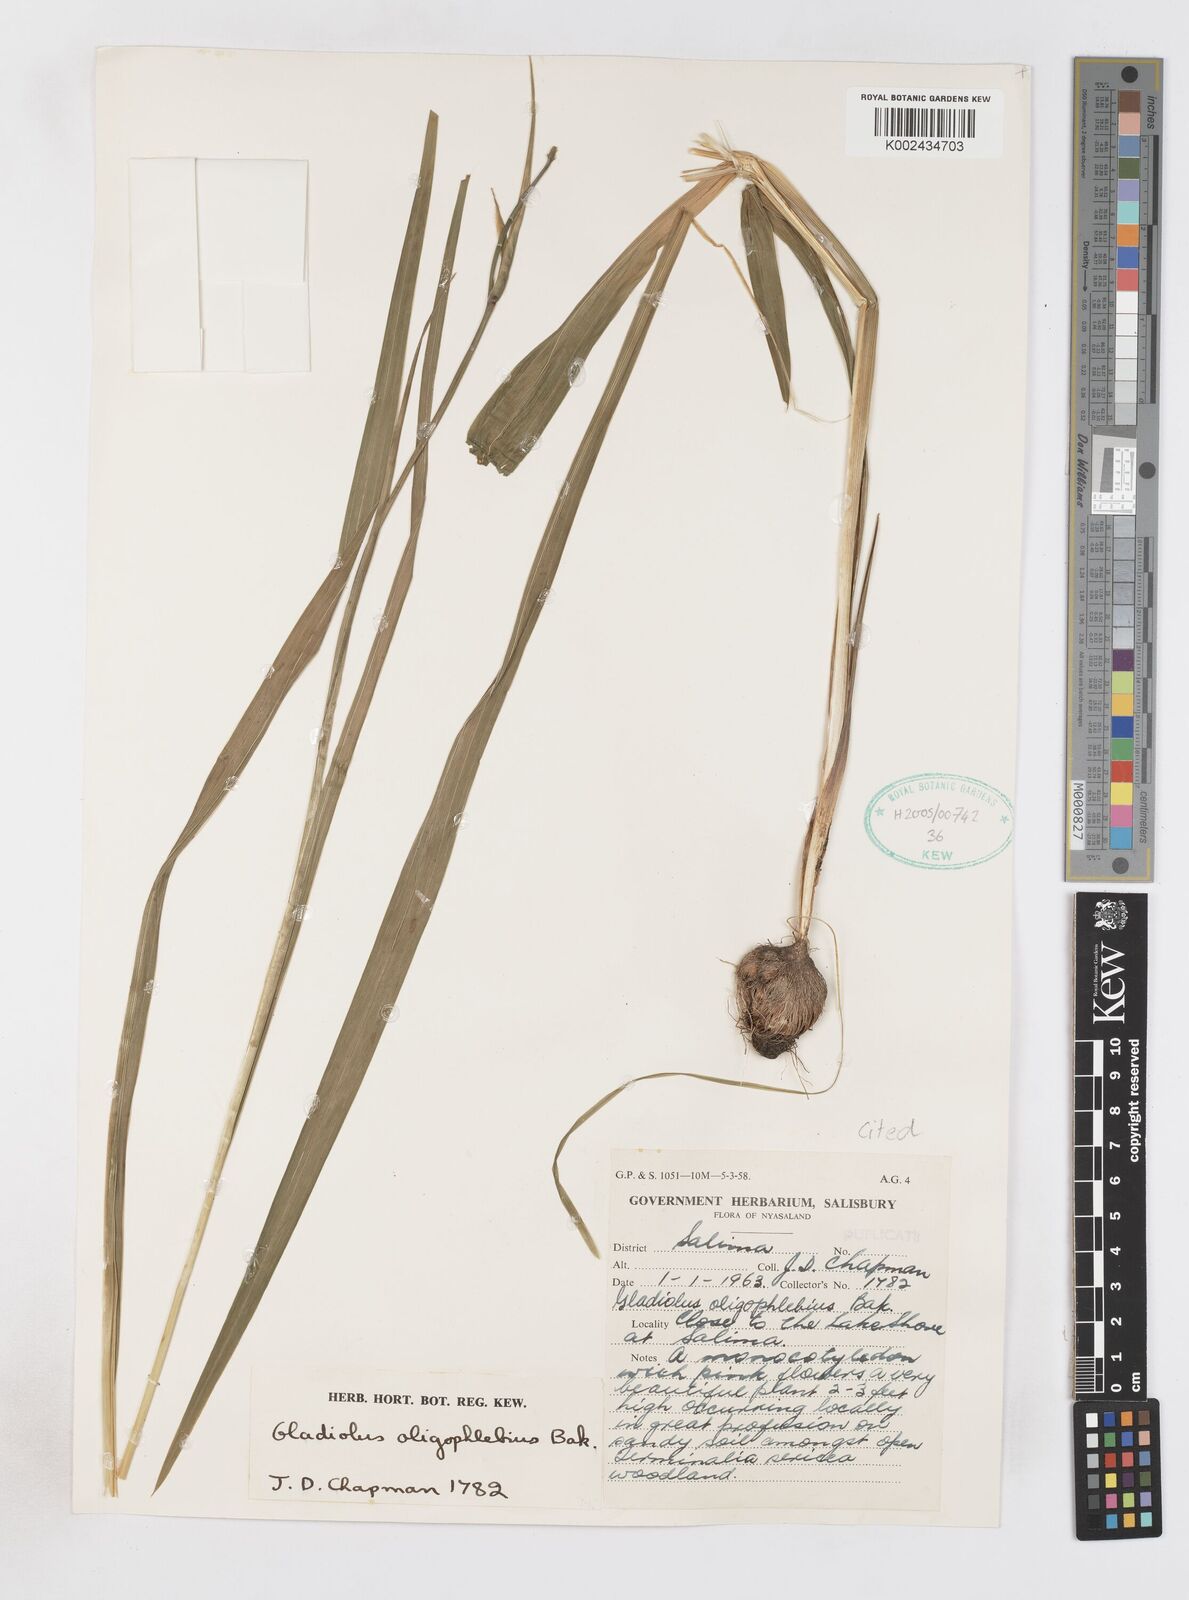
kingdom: Plantae
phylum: Tracheophyta
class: Liliopsida
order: Asparagales
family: Iridaceae
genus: Gladiolus
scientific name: Gladiolus oligophlebius
